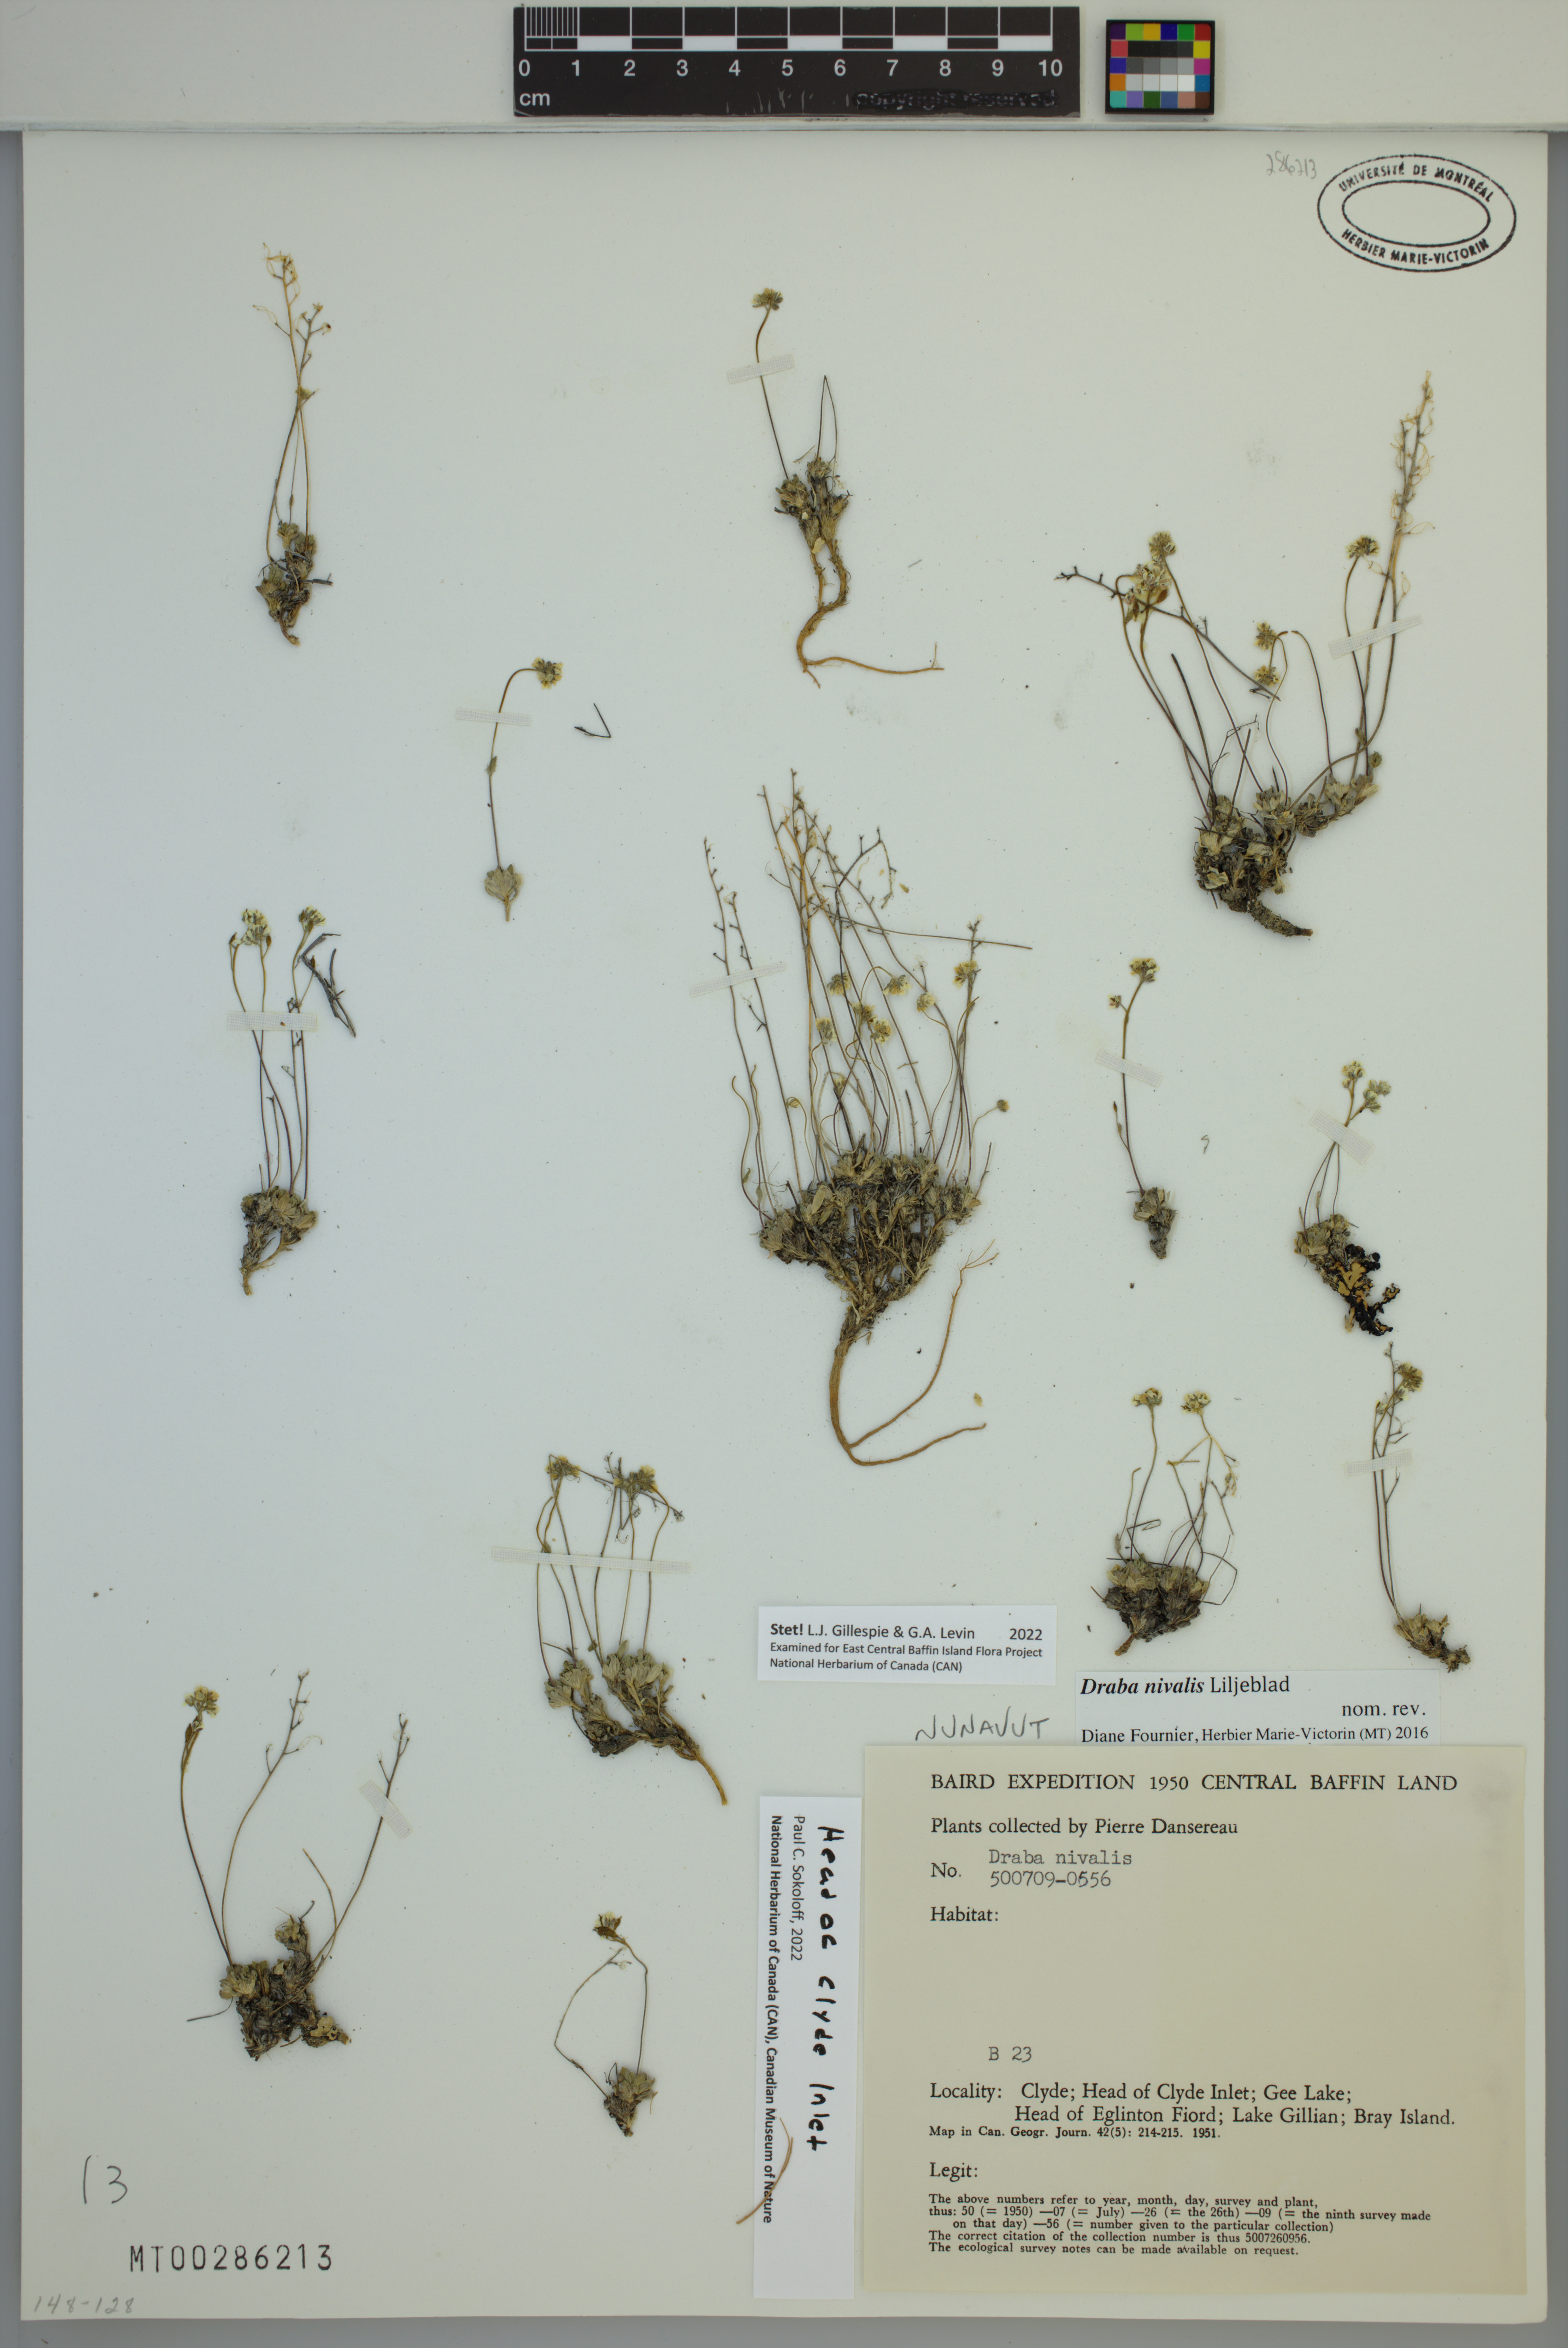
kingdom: Plantae
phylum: Tracheophyta
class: Magnoliopsida
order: Brassicales
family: Brassicaceae
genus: Draba
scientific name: Draba nivalis
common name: Snow draba
